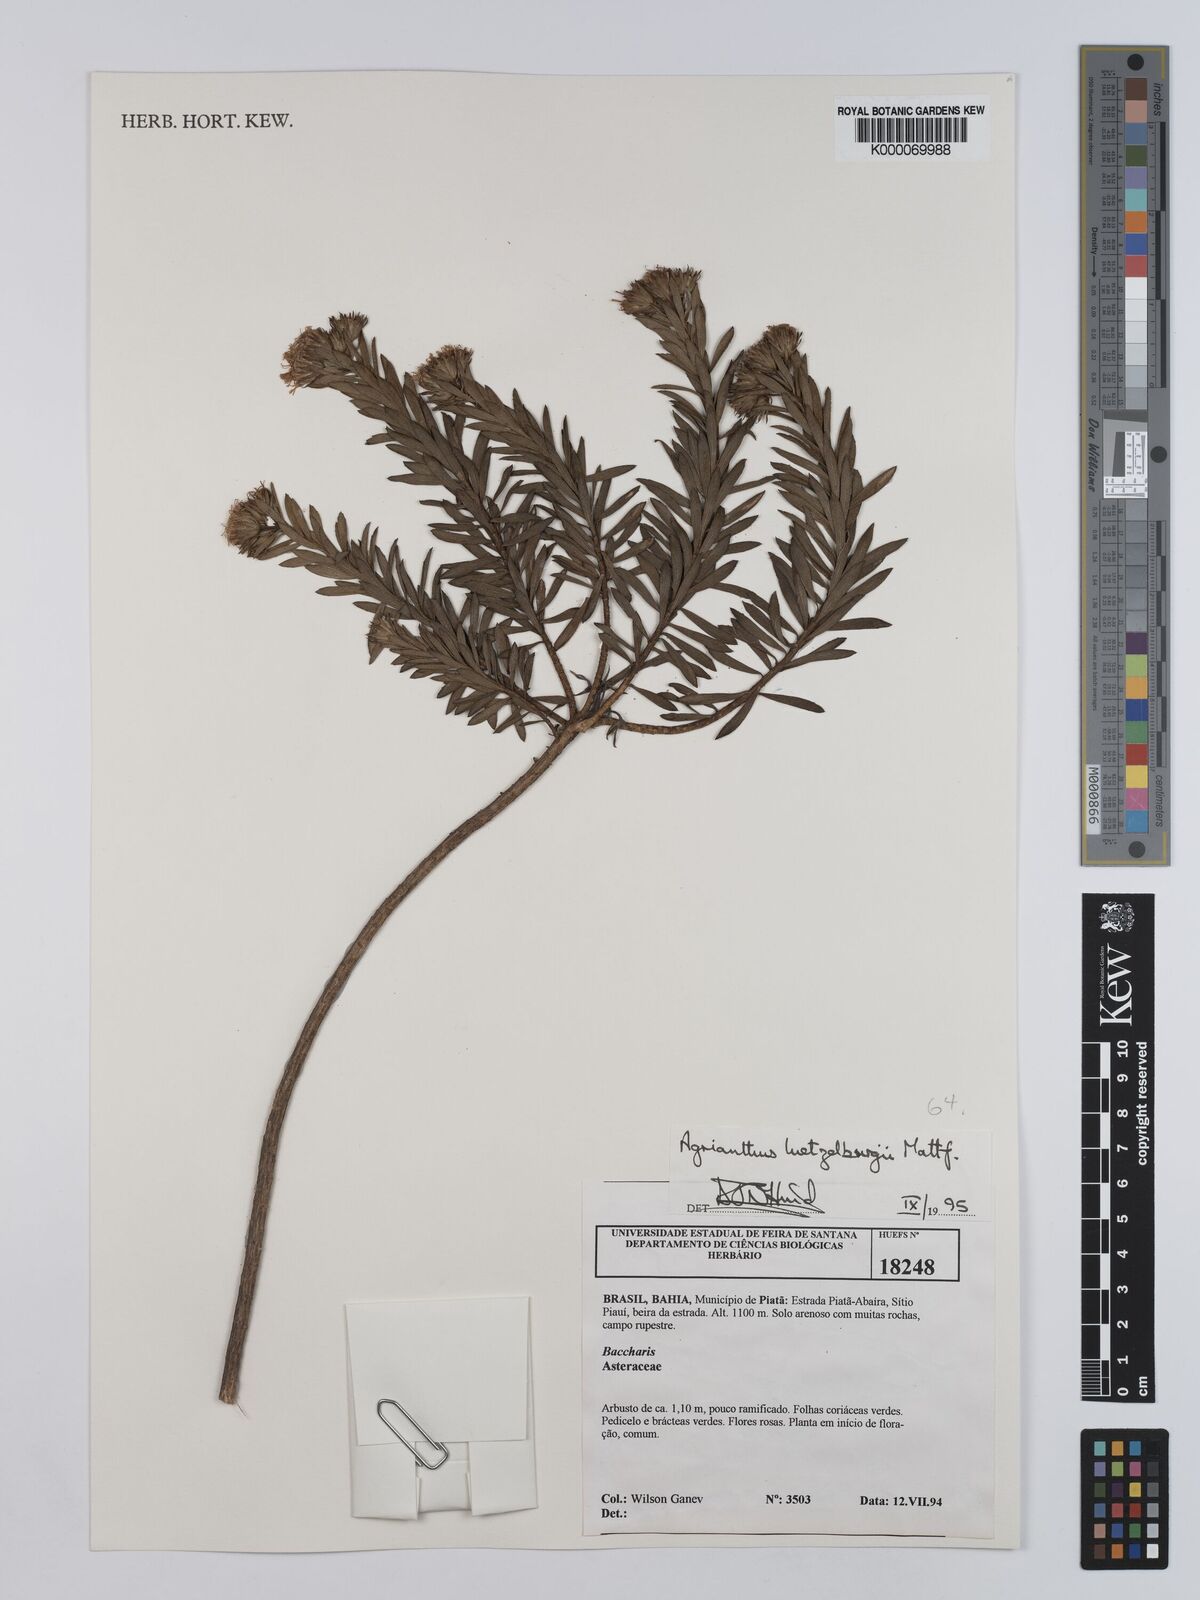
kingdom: Plantae
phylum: Tracheophyta
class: Magnoliopsida
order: Asterales
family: Asteraceae
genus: Agrianthus
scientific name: Agrianthus
